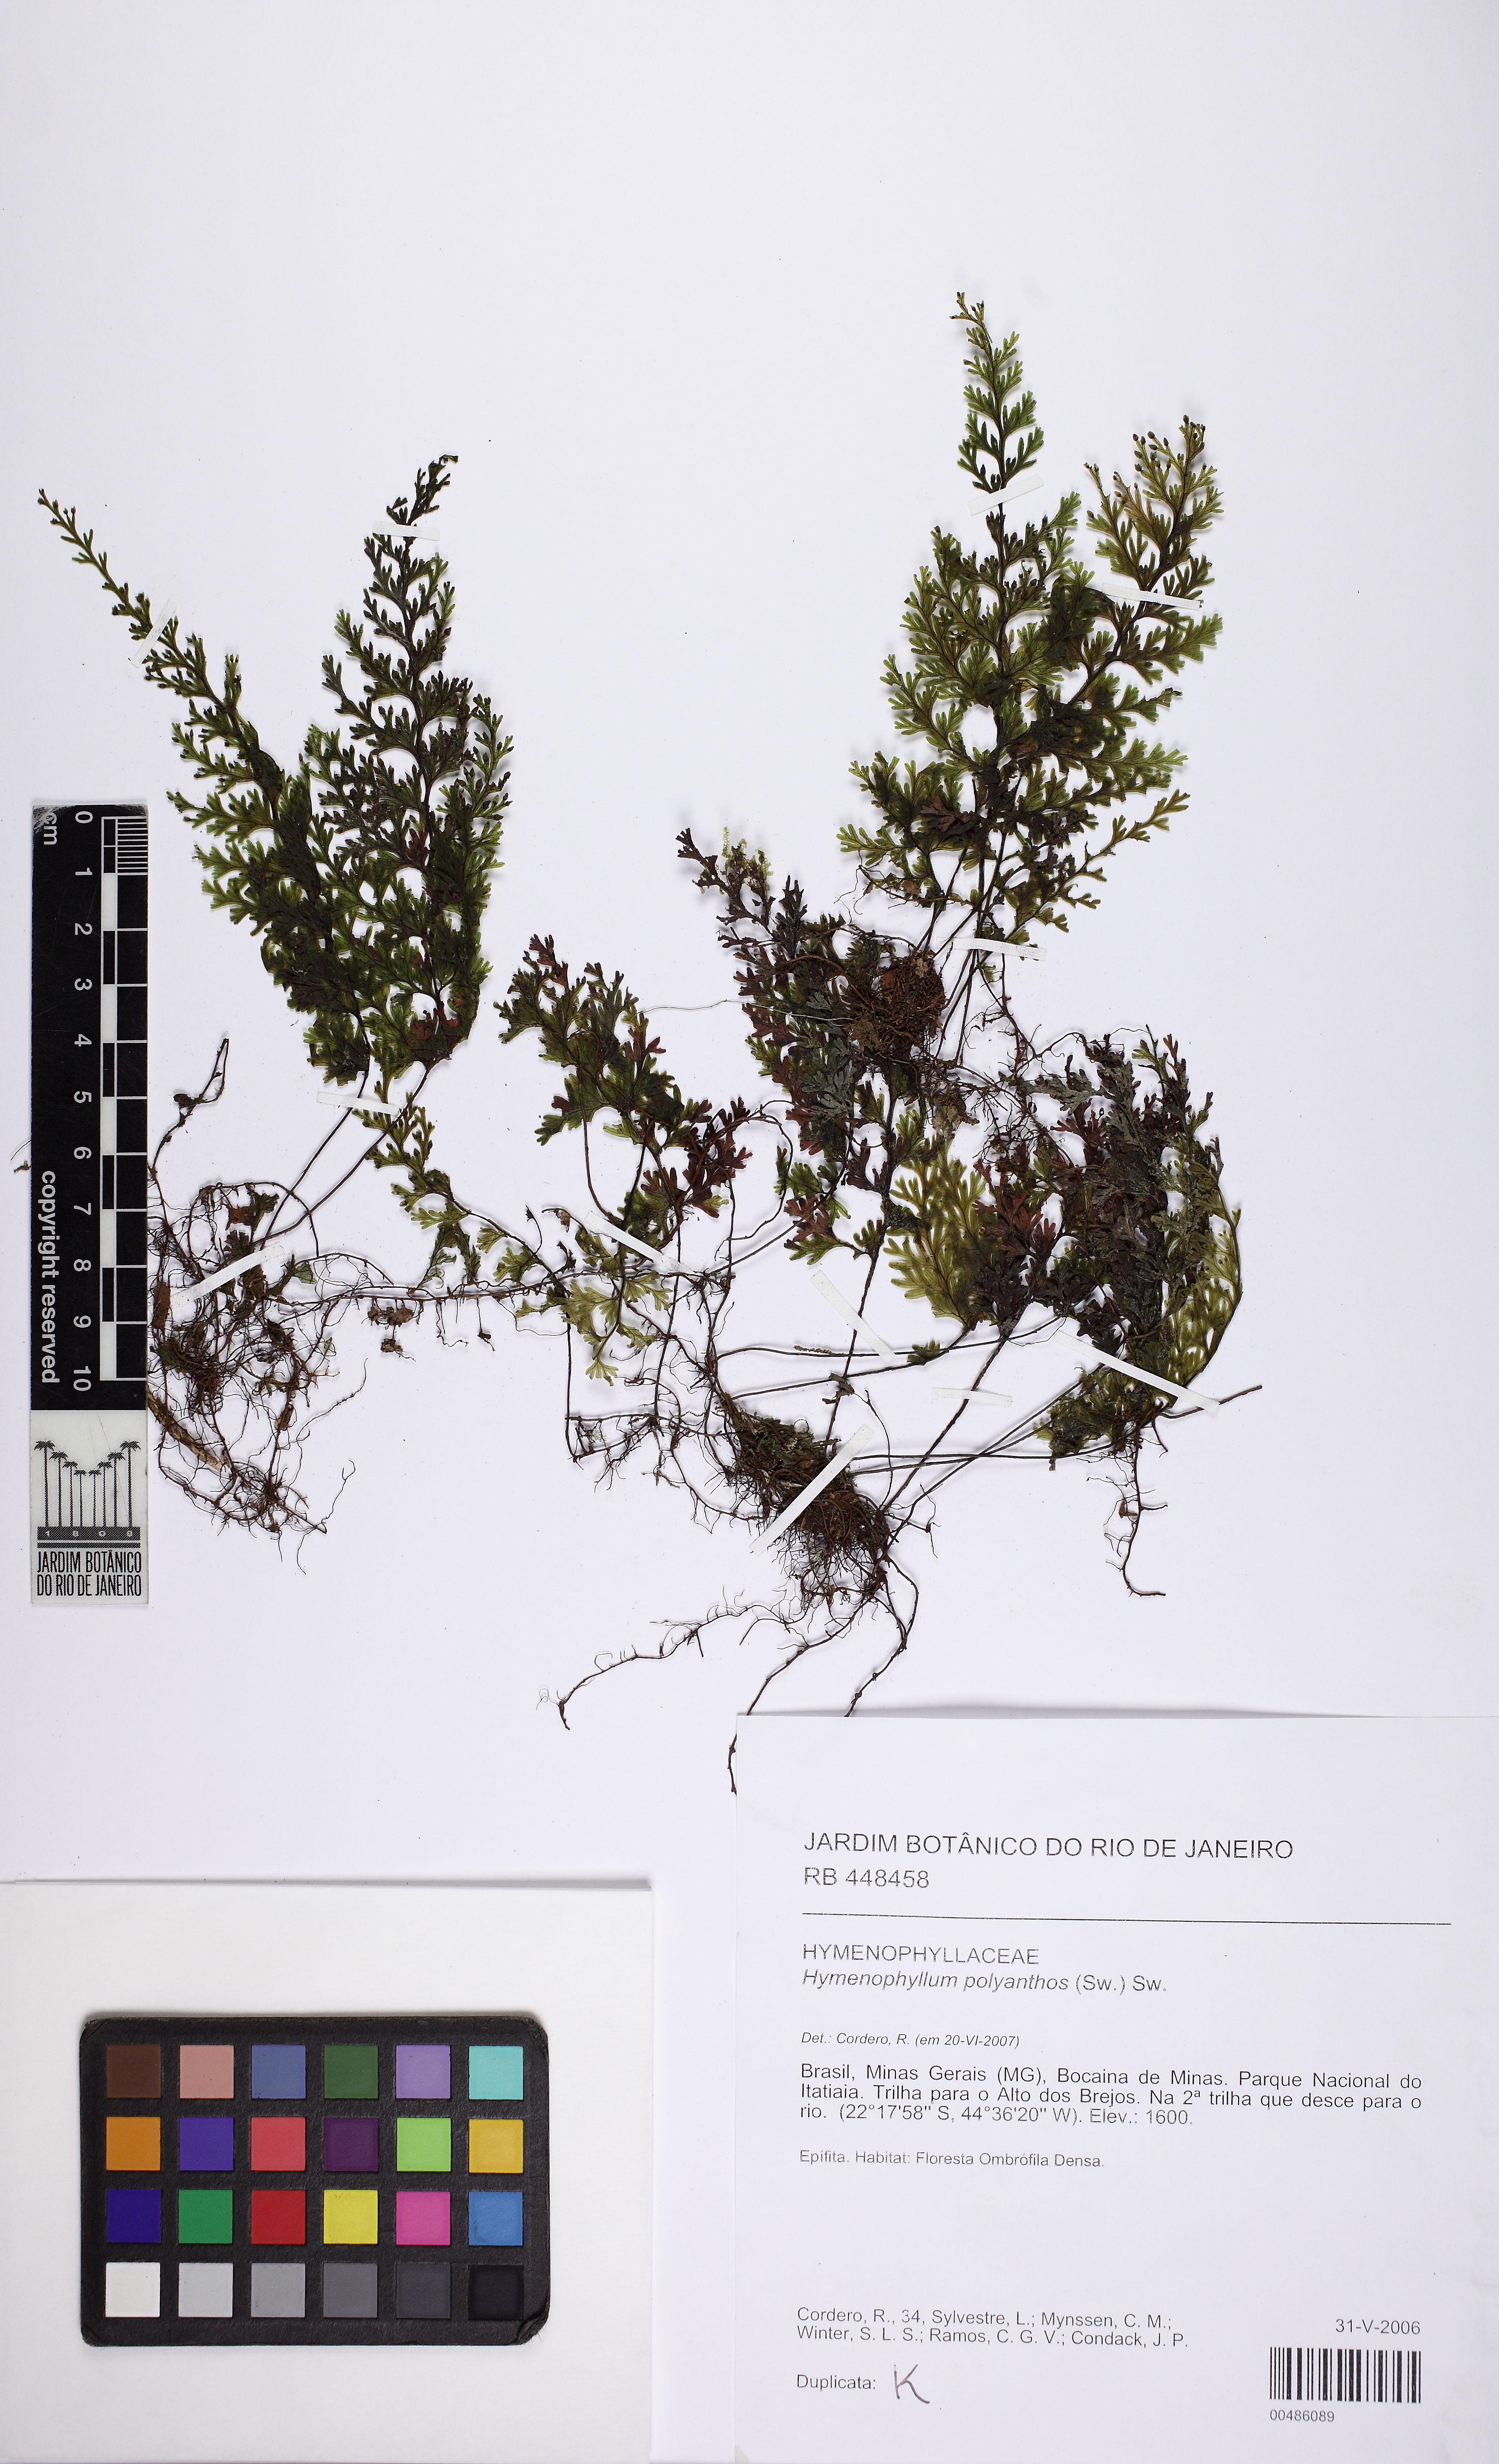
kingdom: Plantae
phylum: Tracheophyta
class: Polypodiopsida
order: Hymenophyllales
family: Hymenophyllaceae
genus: Hymenophyllum
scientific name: Hymenophyllum polyanthos
